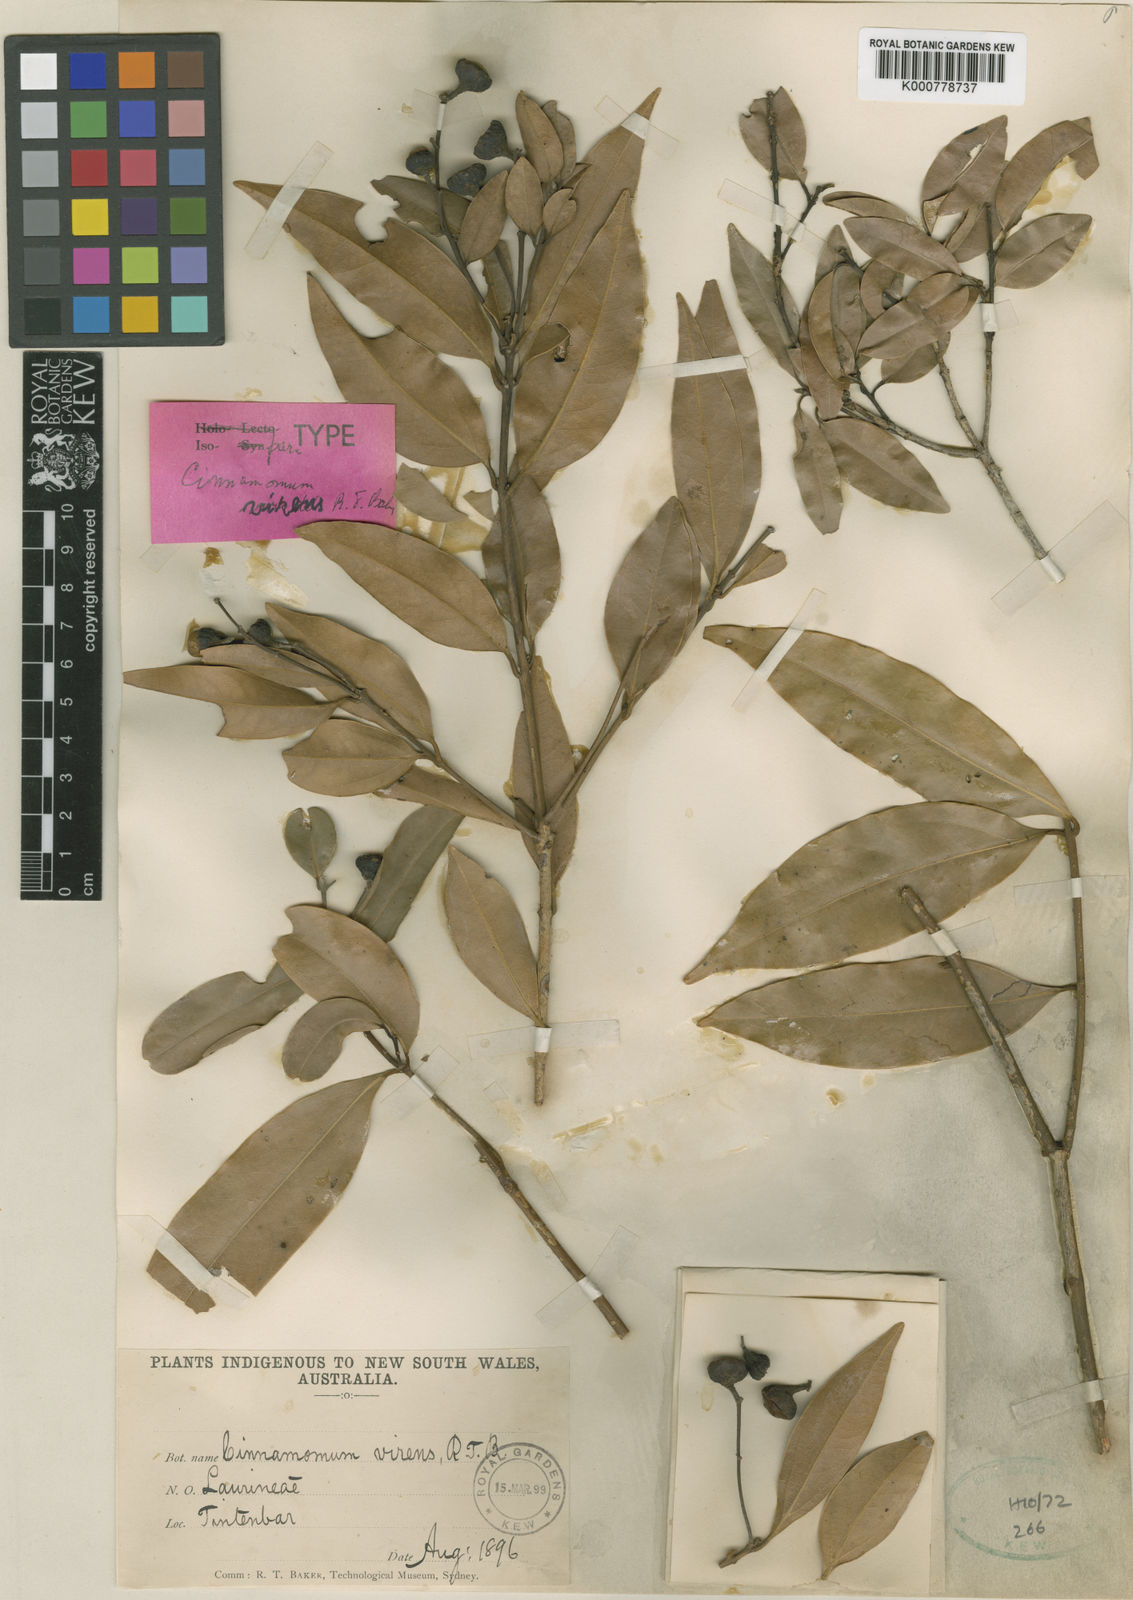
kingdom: Plantae
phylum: Tracheophyta
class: Magnoliopsida
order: Laurales
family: Lauraceae
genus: Cinnamomum
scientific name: Cinnamomum virens
